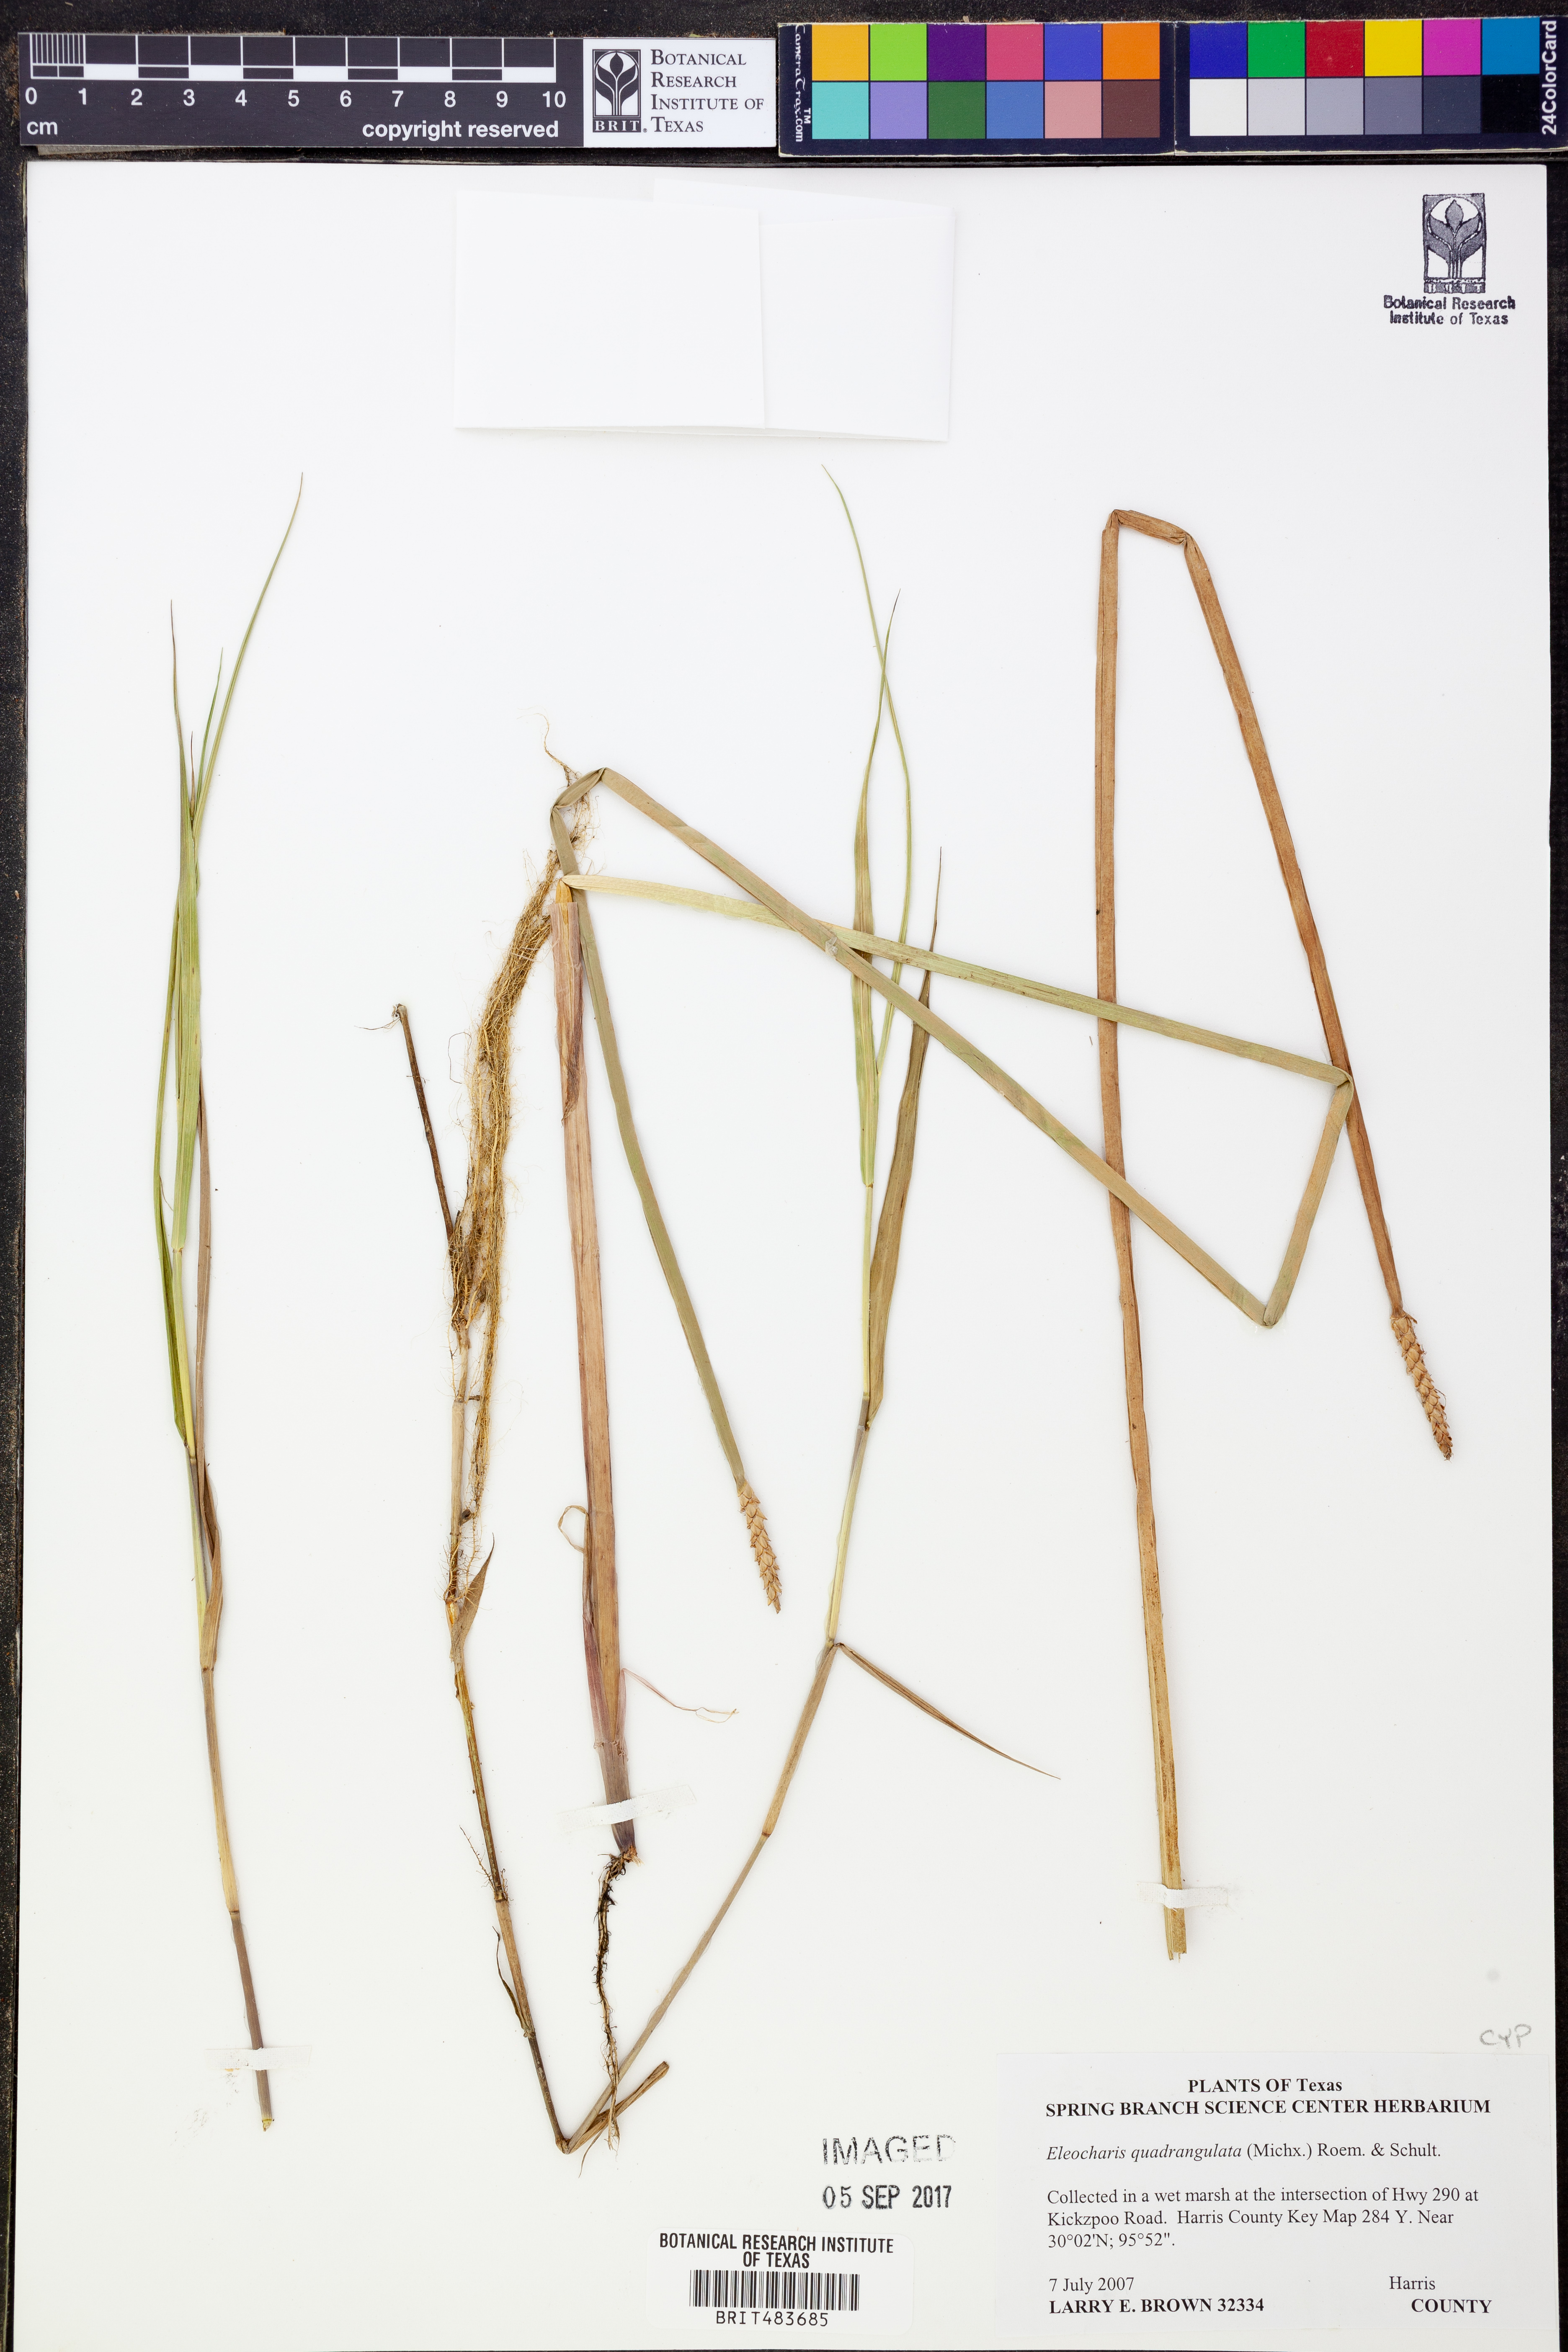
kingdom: Plantae
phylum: Tracheophyta
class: Liliopsida
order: Poales
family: Cyperaceae
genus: Eleocharis
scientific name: Eleocharis quadrangulata
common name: Square-stem spike-rush
